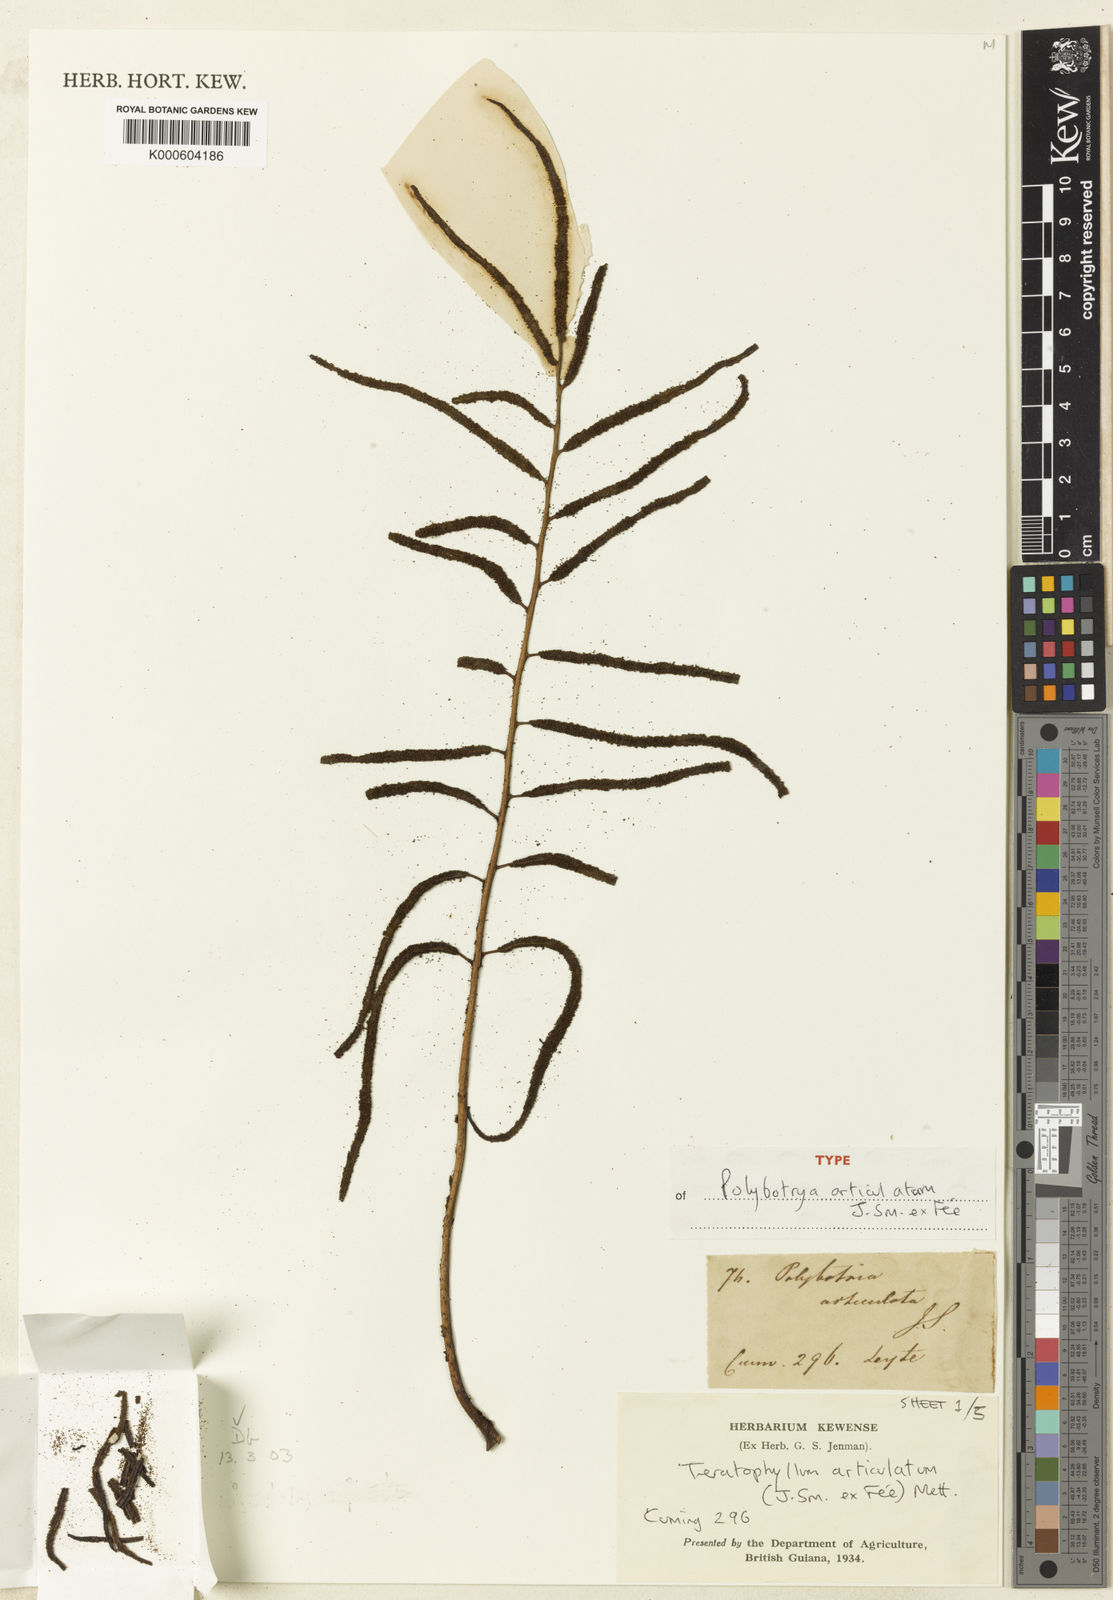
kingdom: Plantae
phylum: Tracheophyta
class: Polypodiopsida
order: Polypodiales
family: Dryopteridaceae
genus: Arthrobotrya
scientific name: Arthrobotrya articulata
